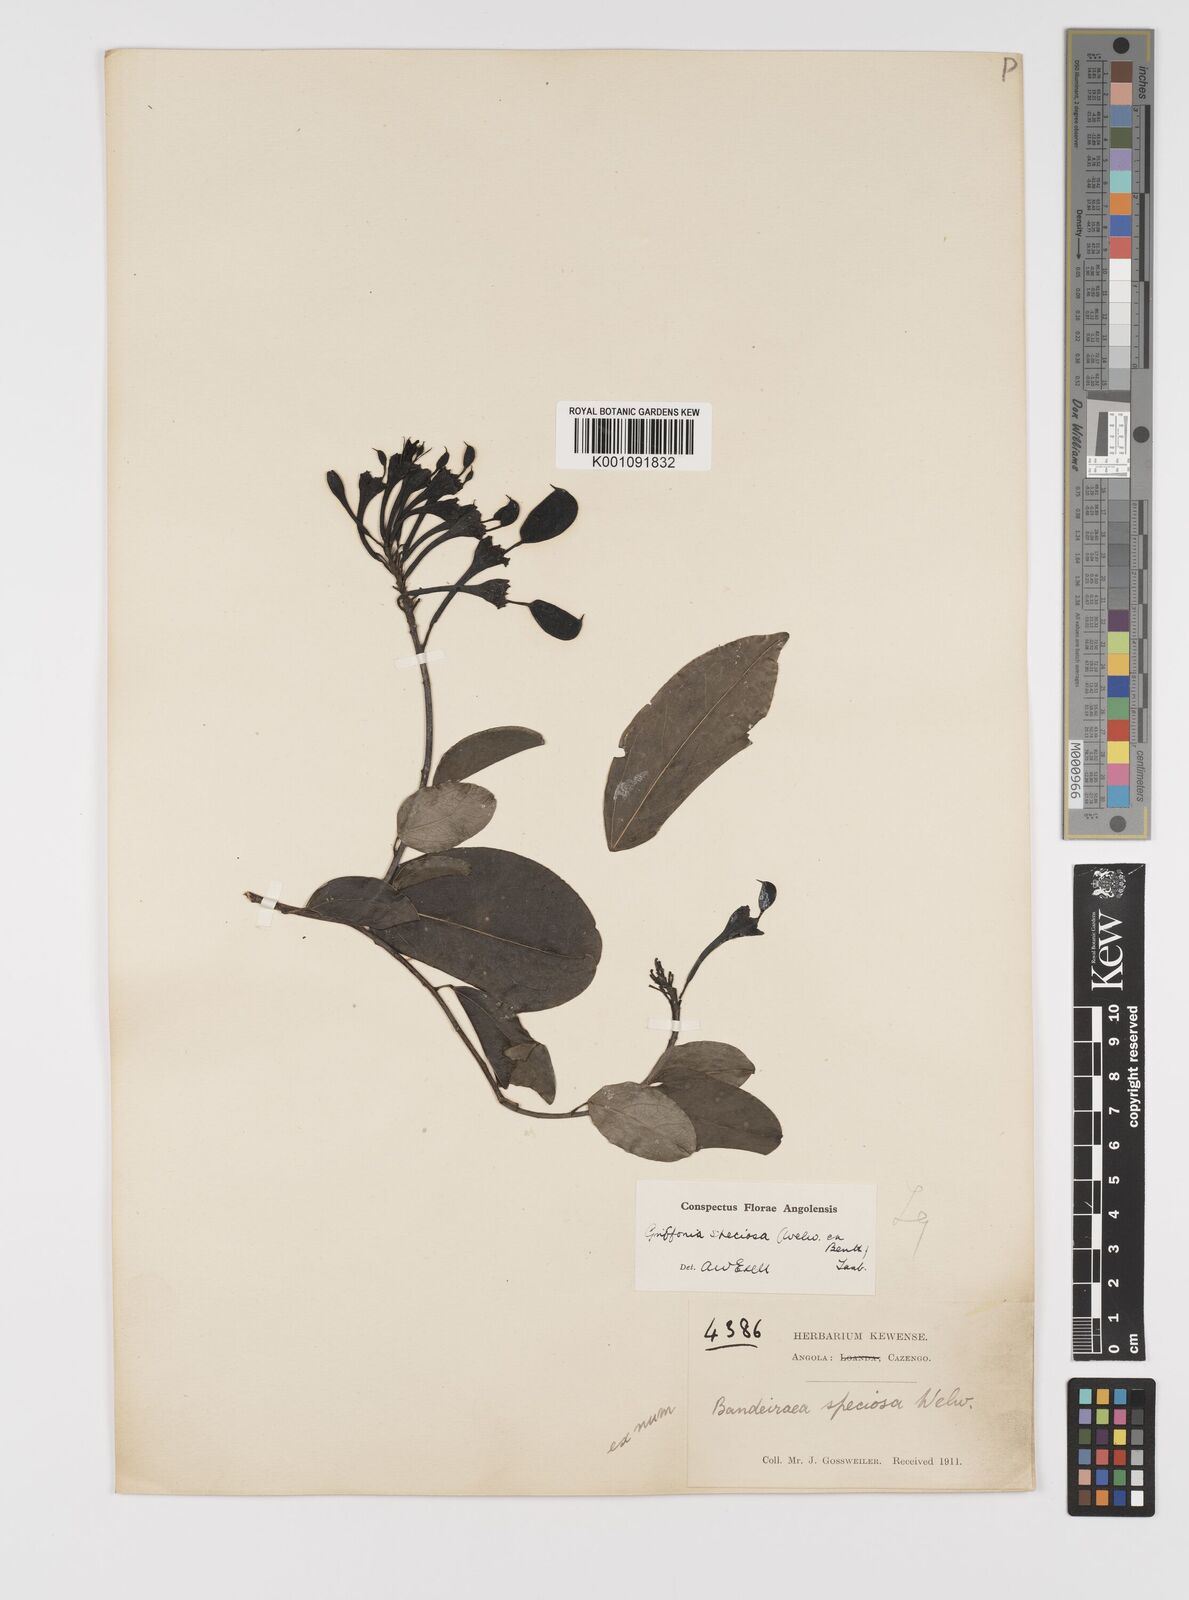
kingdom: Plantae
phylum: Tracheophyta
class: Magnoliopsida
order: Fabales
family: Fabaceae
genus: Griffonia
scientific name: Griffonia speciosa
